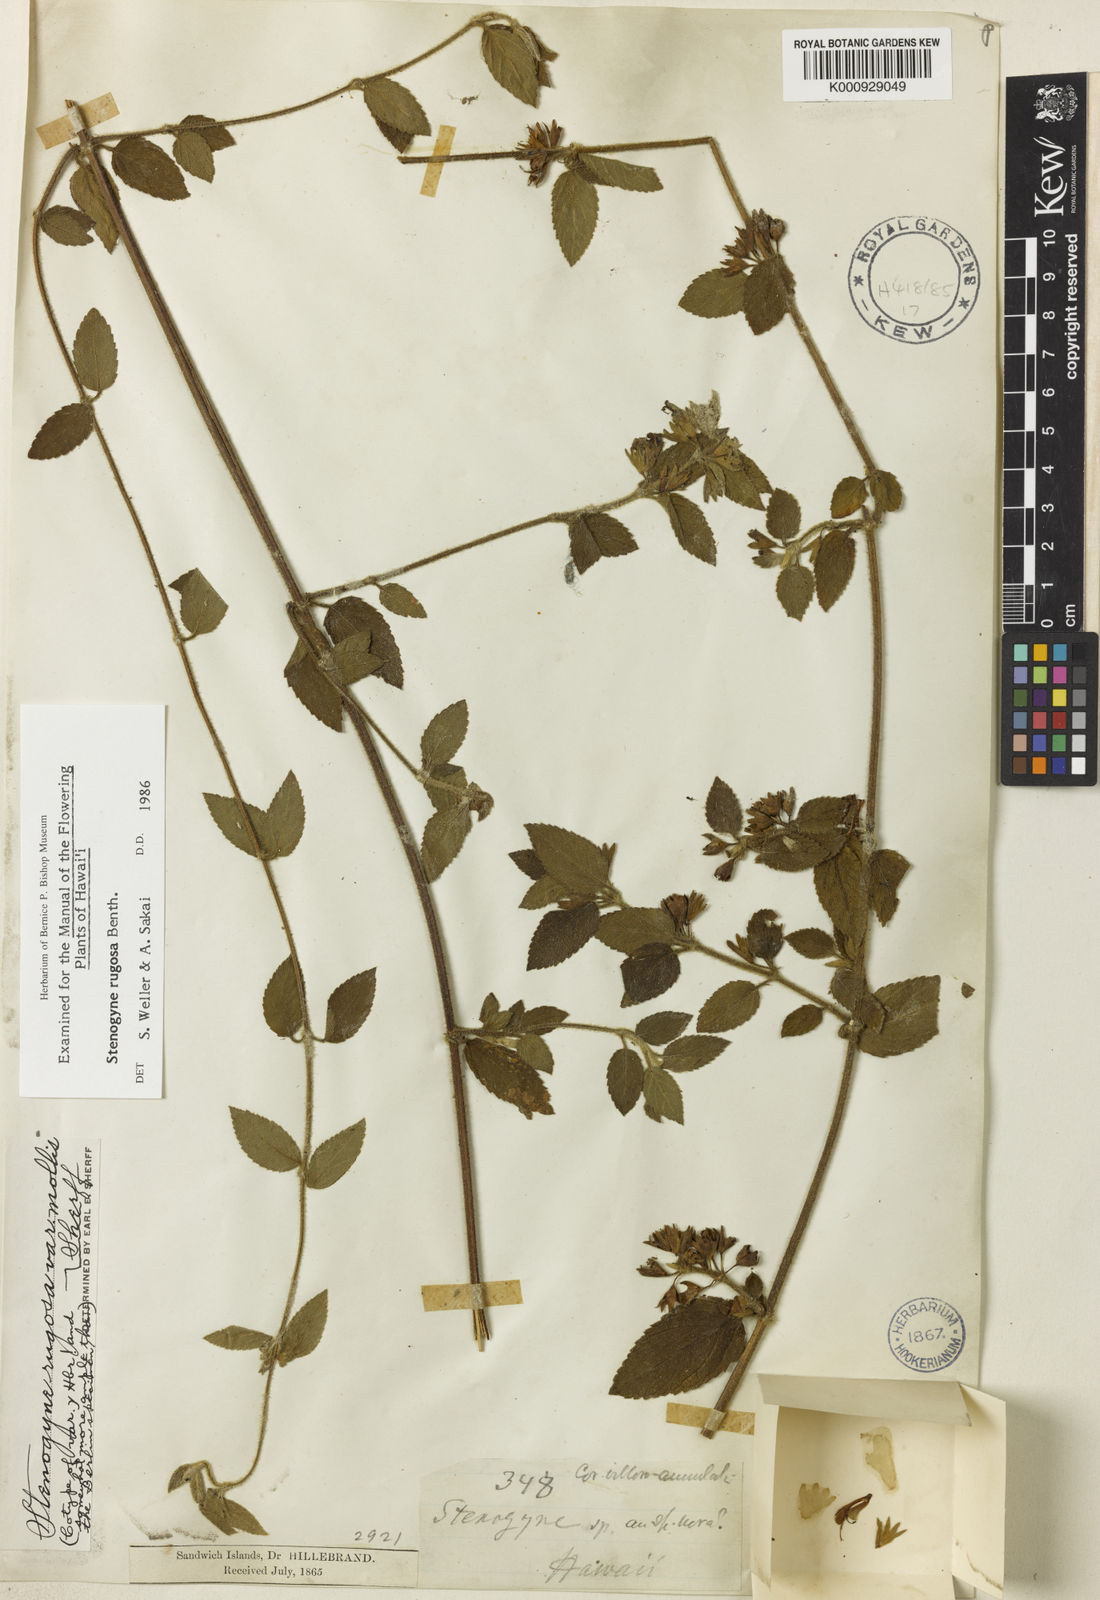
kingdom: Plantae
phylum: Tracheophyta
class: Magnoliopsida
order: Lamiales
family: Lamiaceae
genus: Stenogyne
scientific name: Stenogyne rugosa
